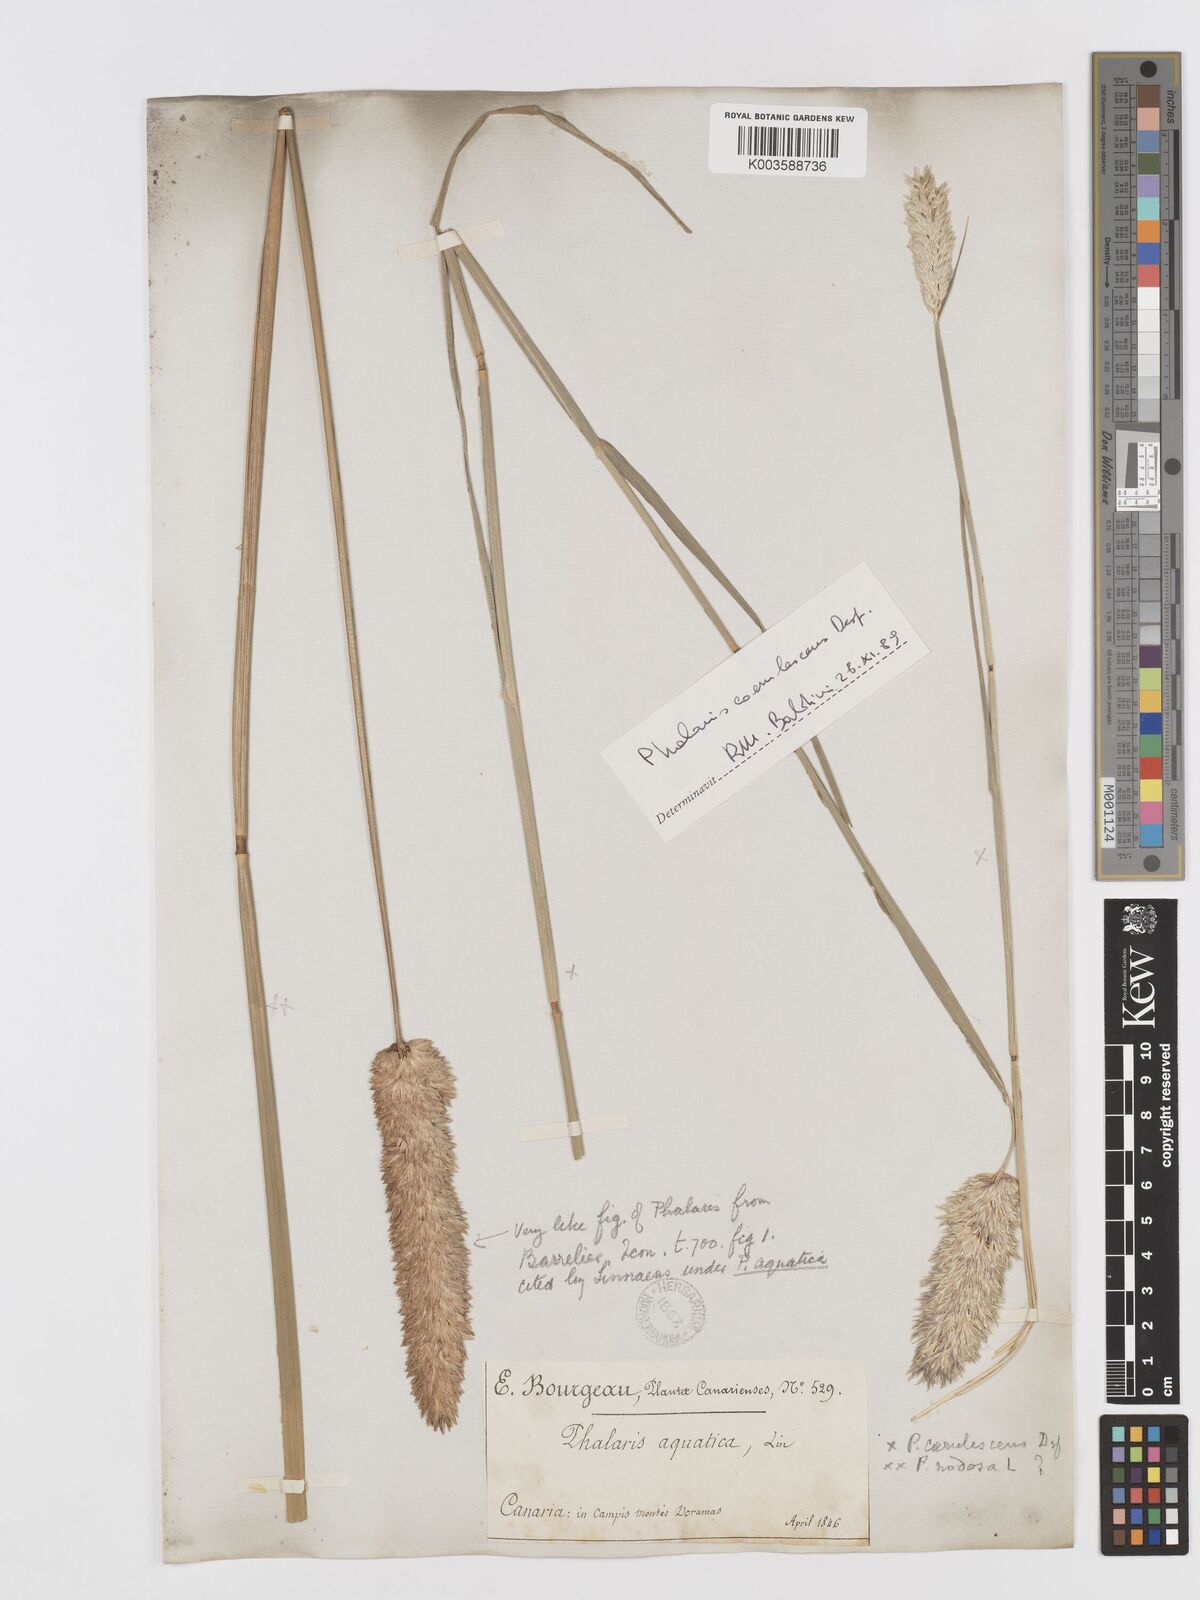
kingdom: Plantae
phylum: Tracheophyta
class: Liliopsida
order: Poales
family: Poaceae
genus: Phalaris
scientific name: Phalaris coerulescens
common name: Sunolgrass
